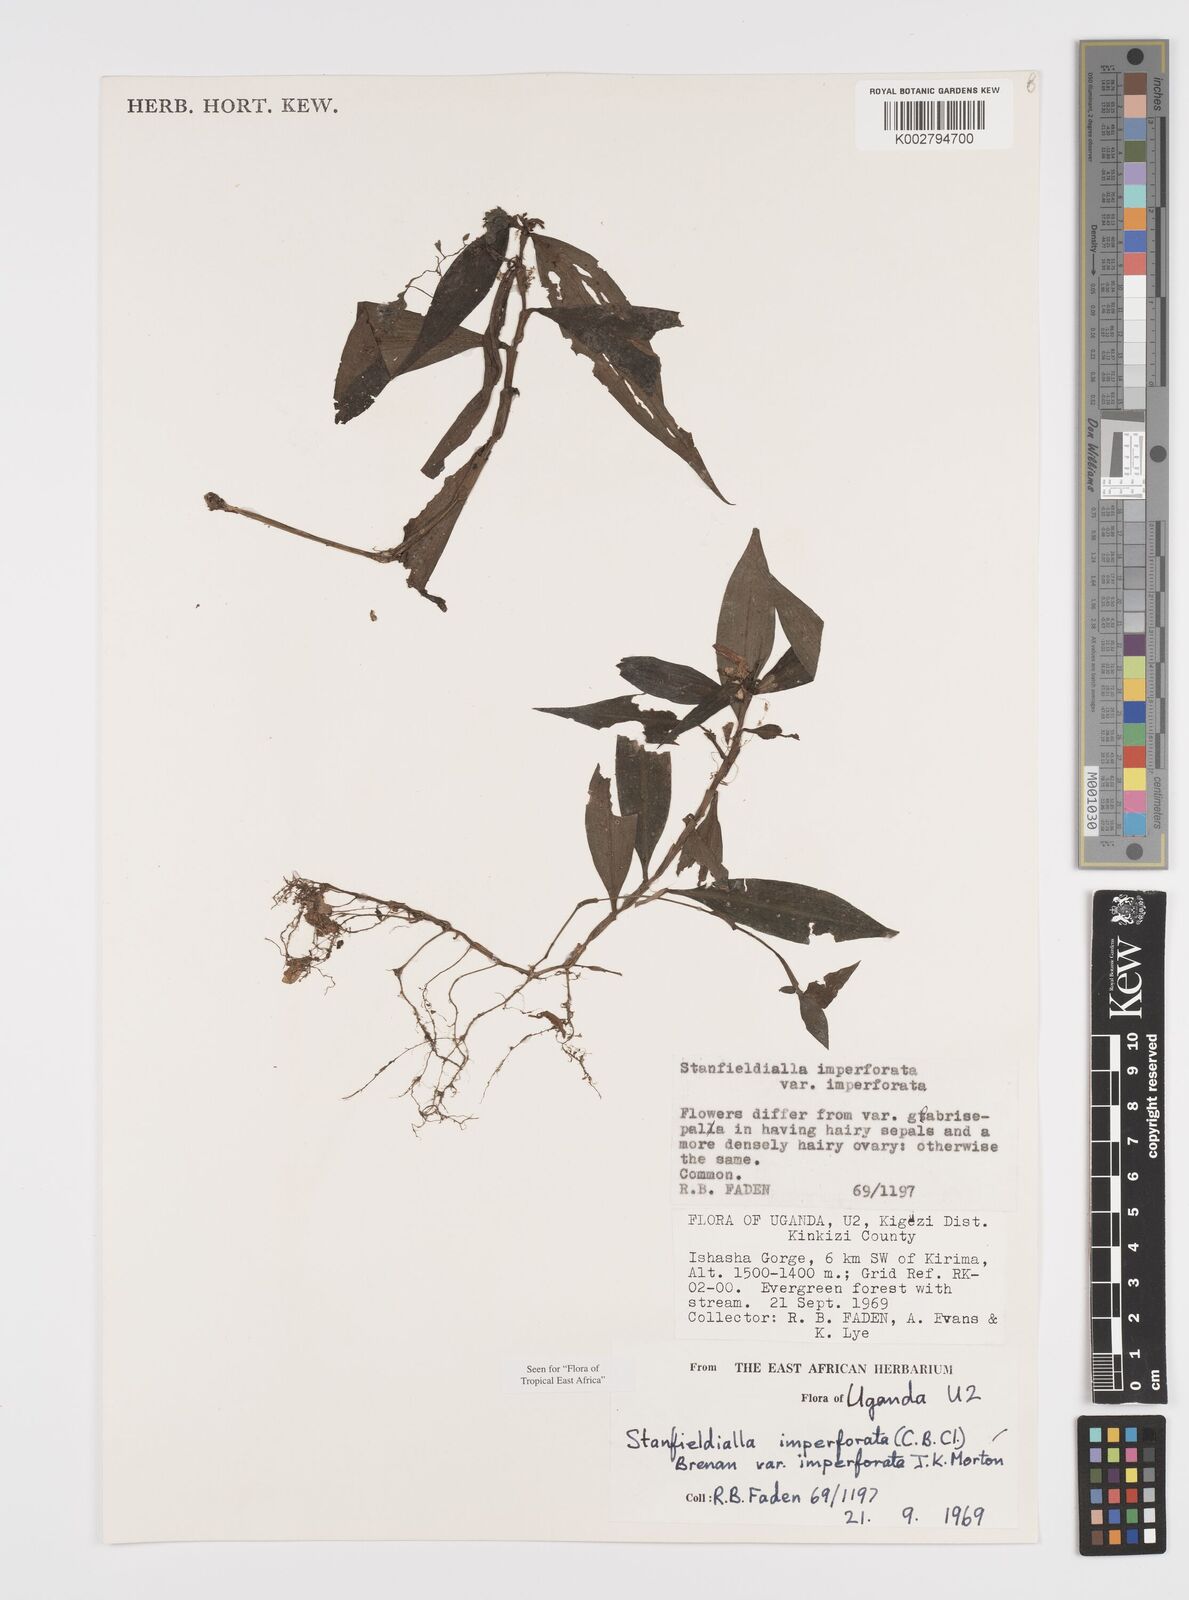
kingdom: Plantae
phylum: Tracheophyta
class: Liliopsida
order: Commelinales
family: Commelinaceae
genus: Stanfieldiella
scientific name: Stanfieldiella imperforata
